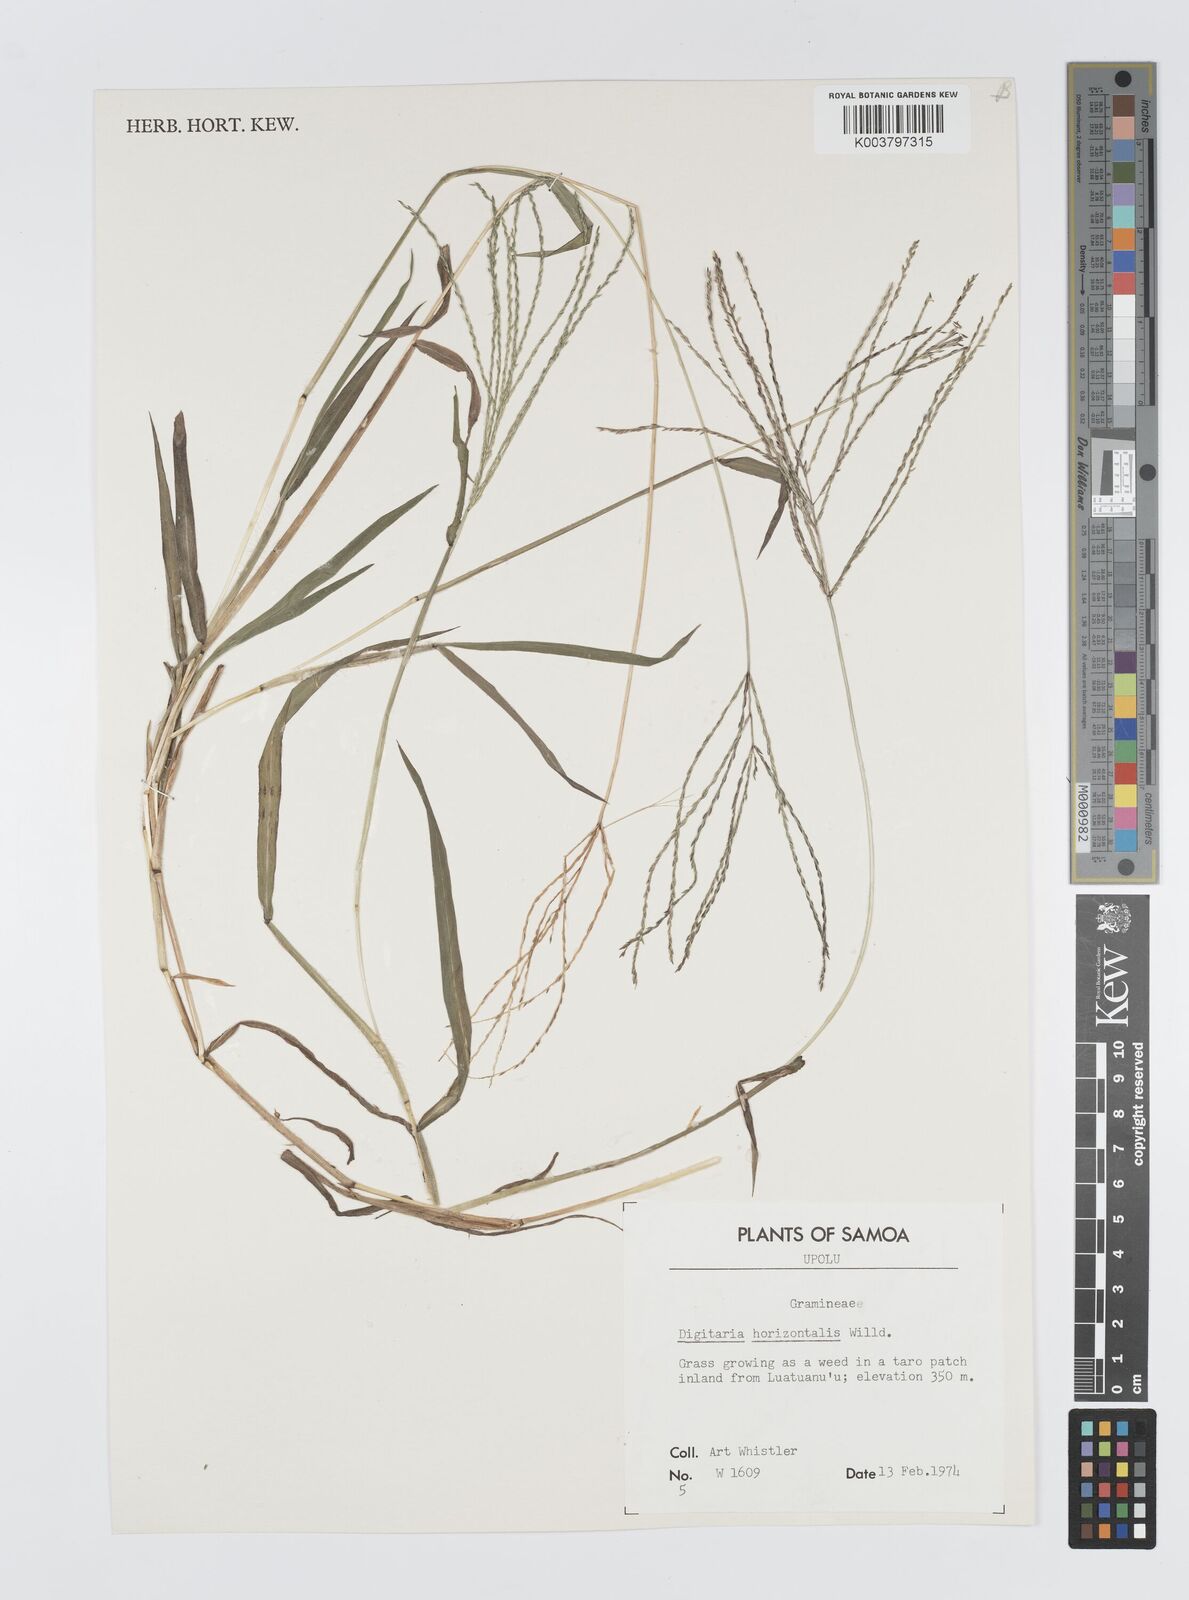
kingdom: Plantae
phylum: Tracheophyta
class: Liliopsida
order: Poales
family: Poaceae
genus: Digitaria
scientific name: Digitaria horizontalis
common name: Jamaican crabgrass
